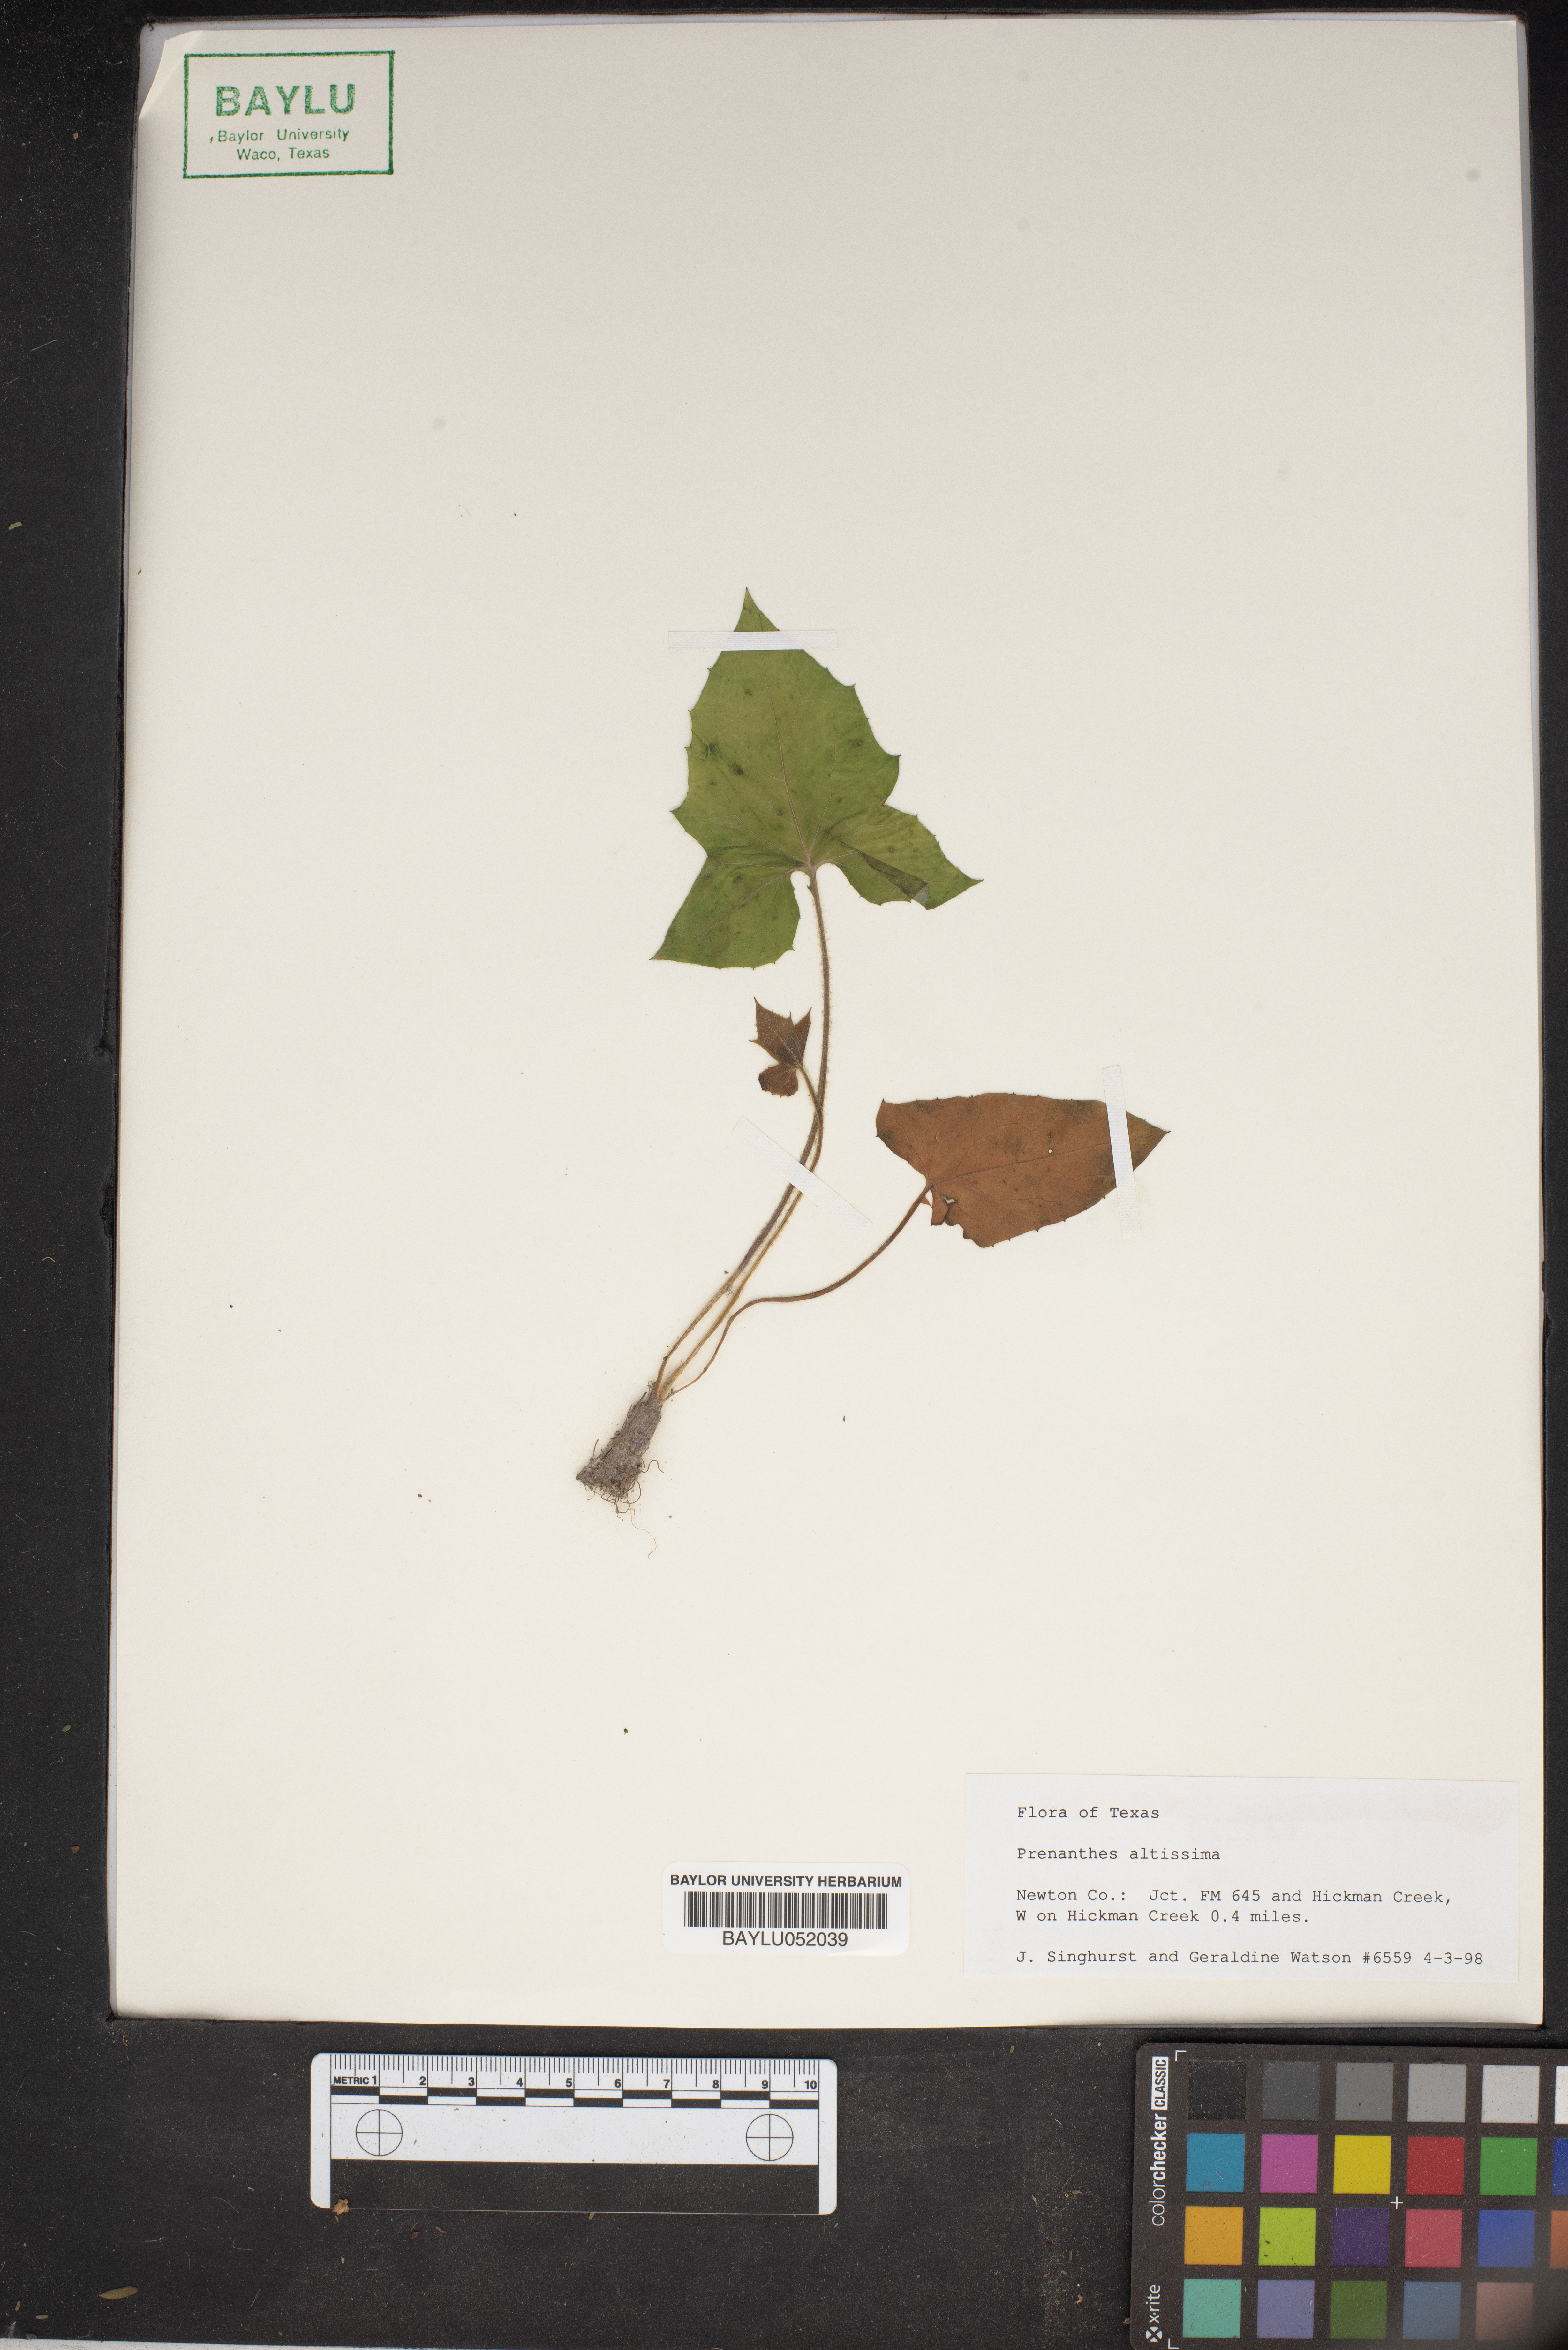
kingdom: Plantae
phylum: Tracheophyta
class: Magnoliopsida
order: Asterales
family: Asteraceae
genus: Lactuca
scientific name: Lactuca quercina
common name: Wild lettuce
